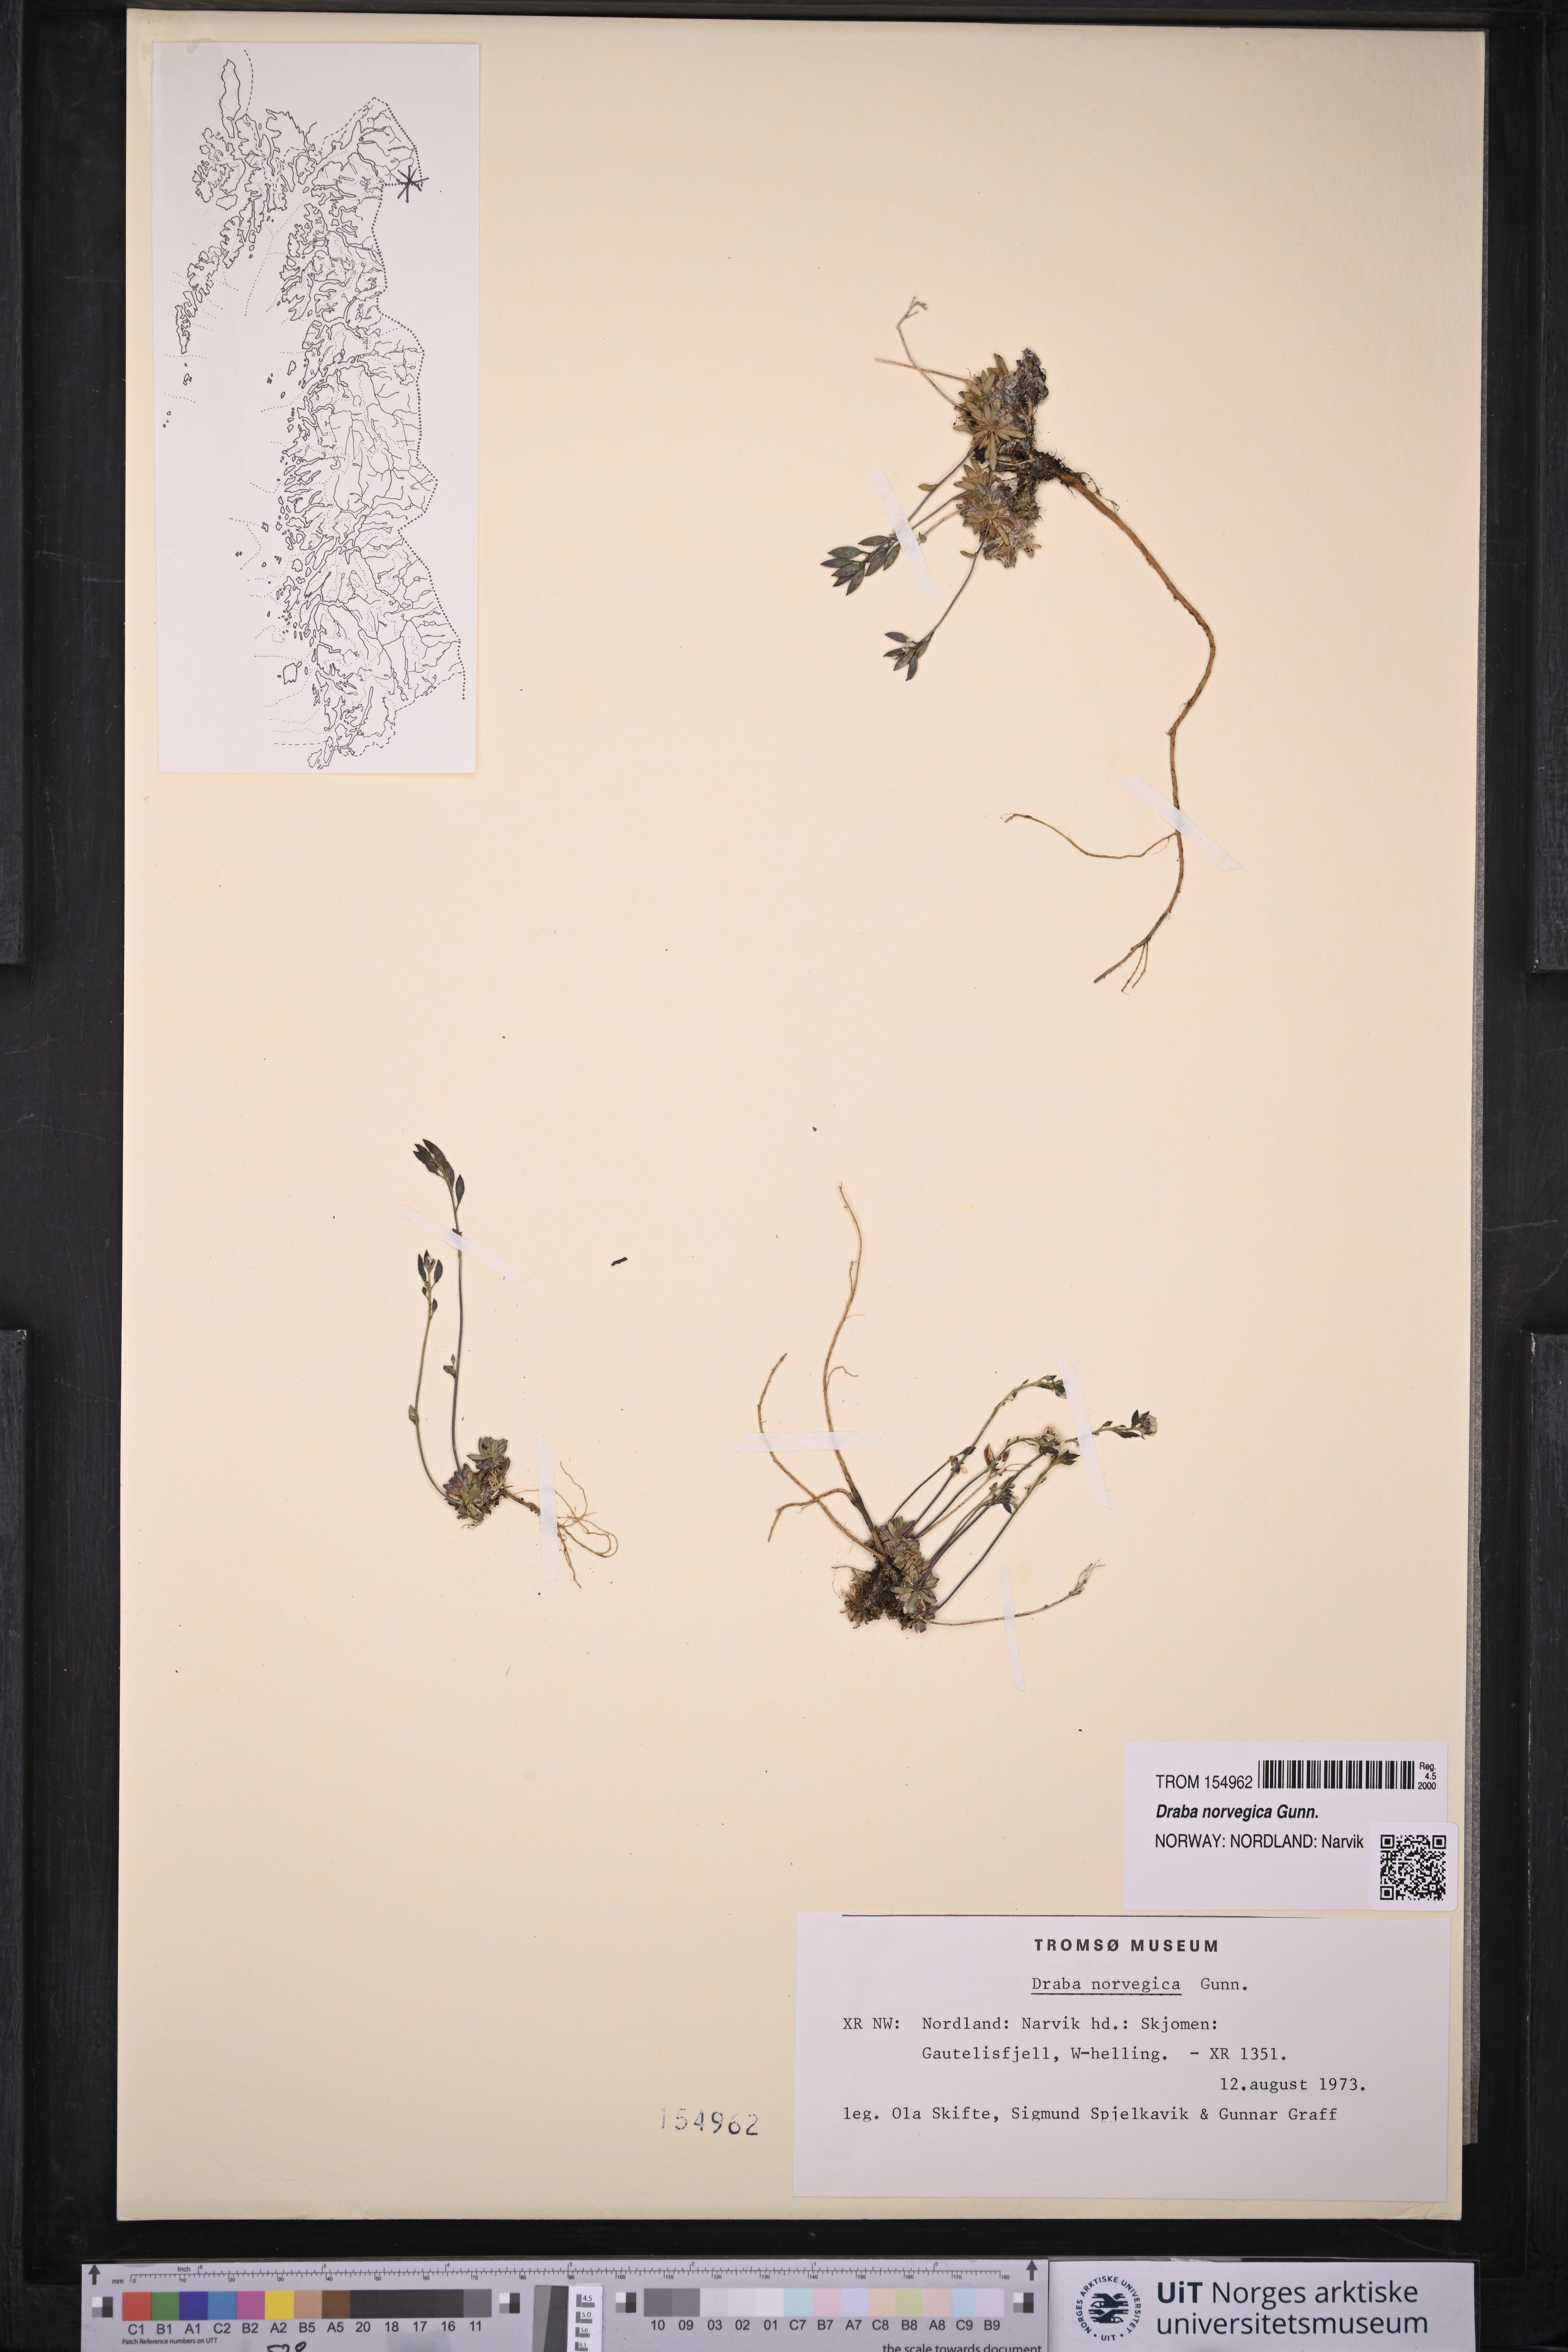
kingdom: Plantae
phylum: Tracheophyta
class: Magnoliopsida
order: Brassicales
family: Brassicaceae
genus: Draba
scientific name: Draba norvegica
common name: Rock whitlowgrass
